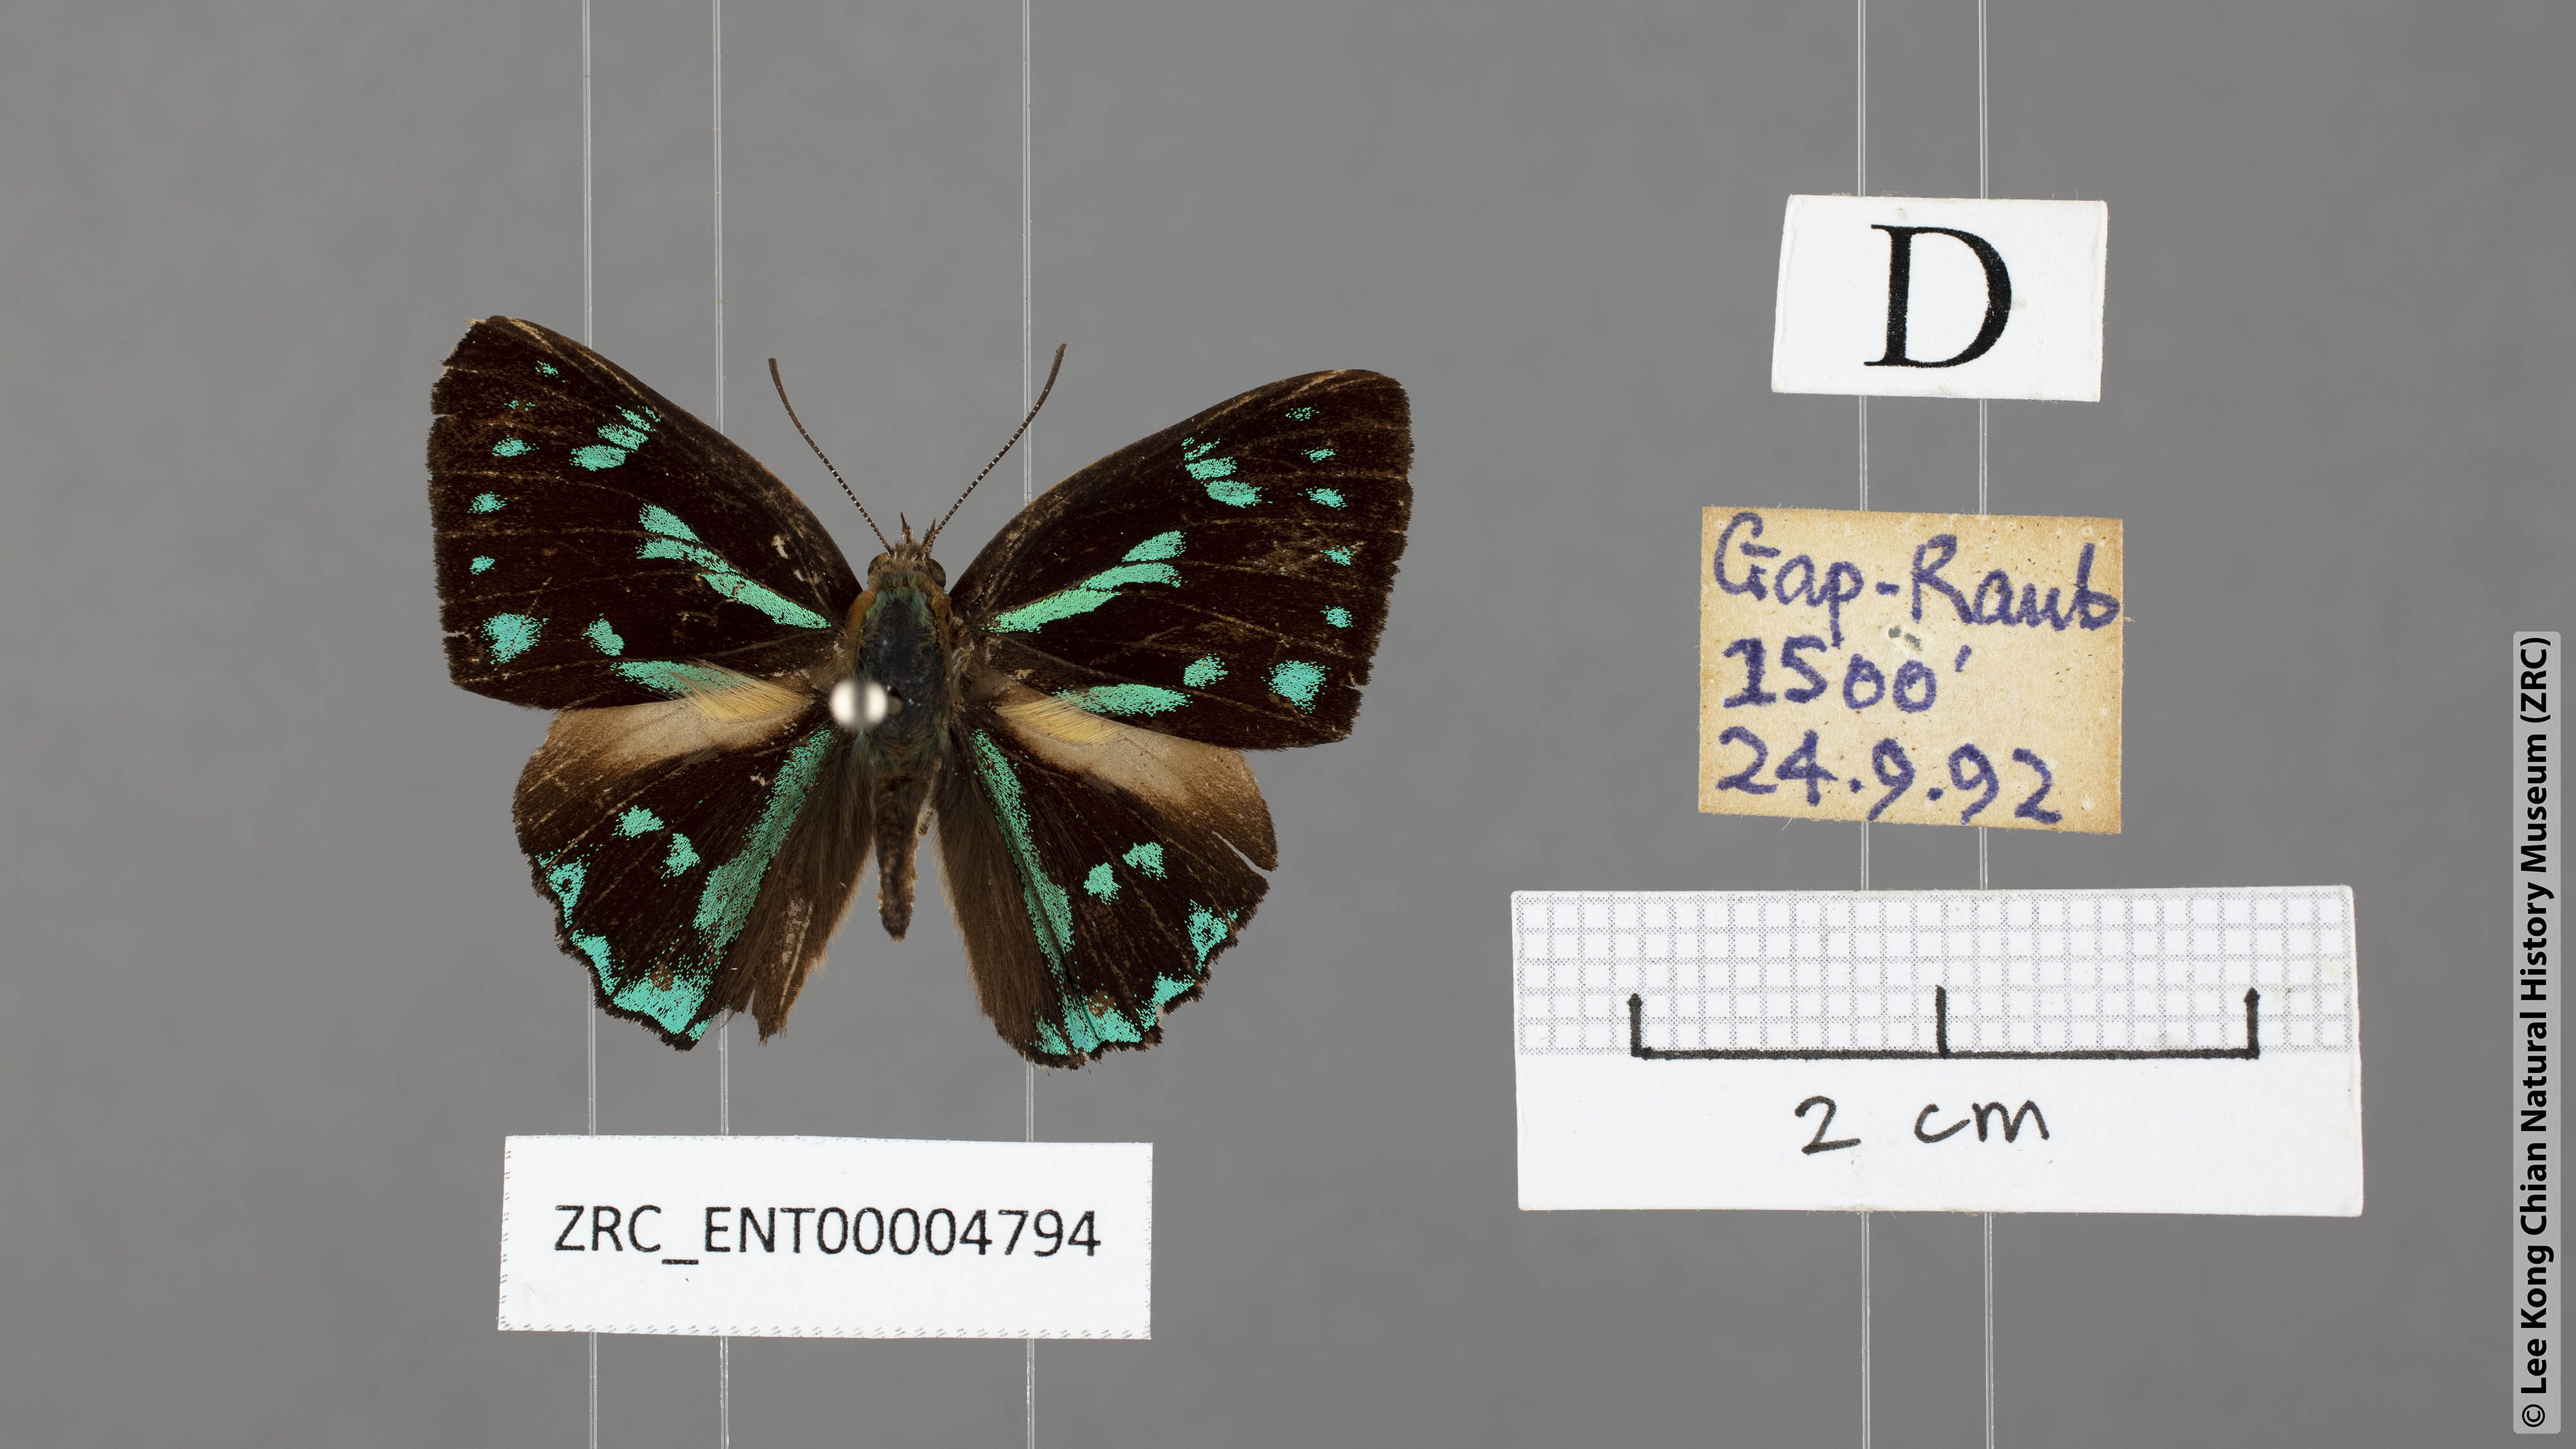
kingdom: Animalia
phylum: Arthropoda
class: Insecta
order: Lepidoptera
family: Lycaenidae
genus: Poritia
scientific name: Poritia proxina
